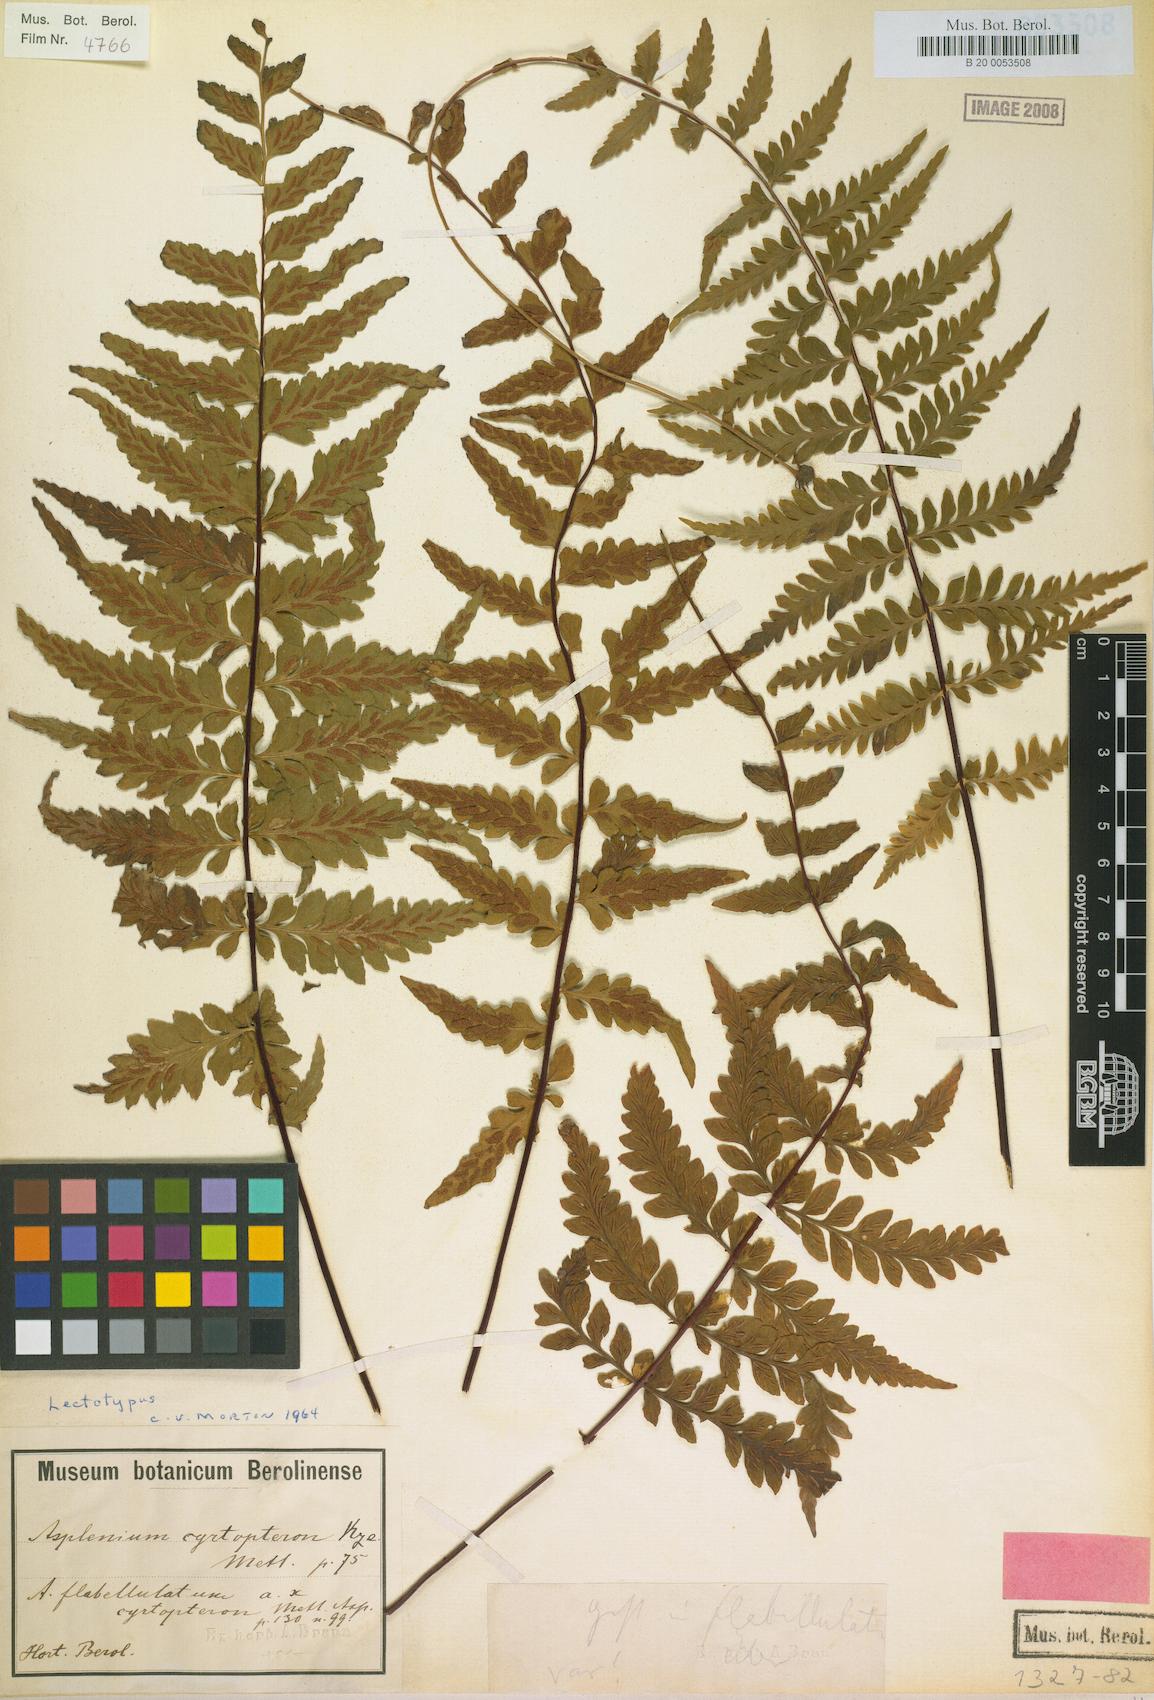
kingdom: Plantae
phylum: Tracheophyta
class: Polypodiopsida
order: Polypodiales
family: Aspleniaceae
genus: Asplenium
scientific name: Asplenium radicans
